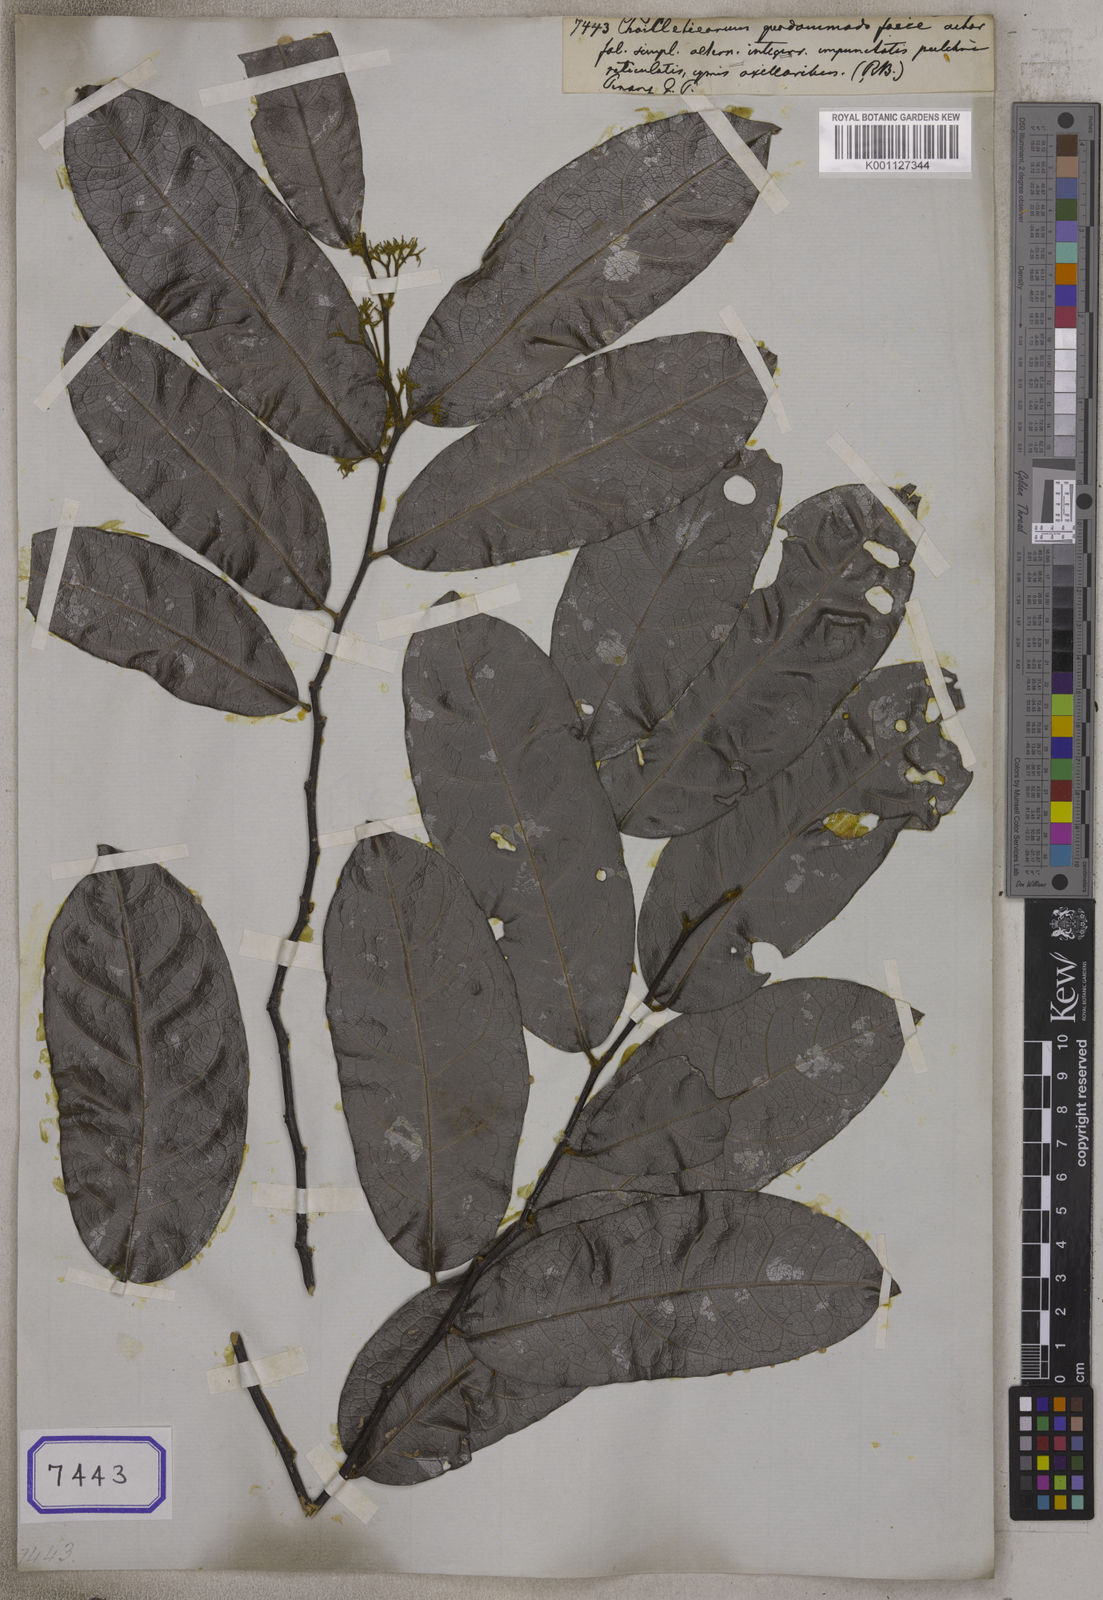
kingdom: Plantae
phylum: Tracheophyta
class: Magnoliopsida
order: Malpighiales
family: Dichapetalaceae
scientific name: Dichapetalaceae
